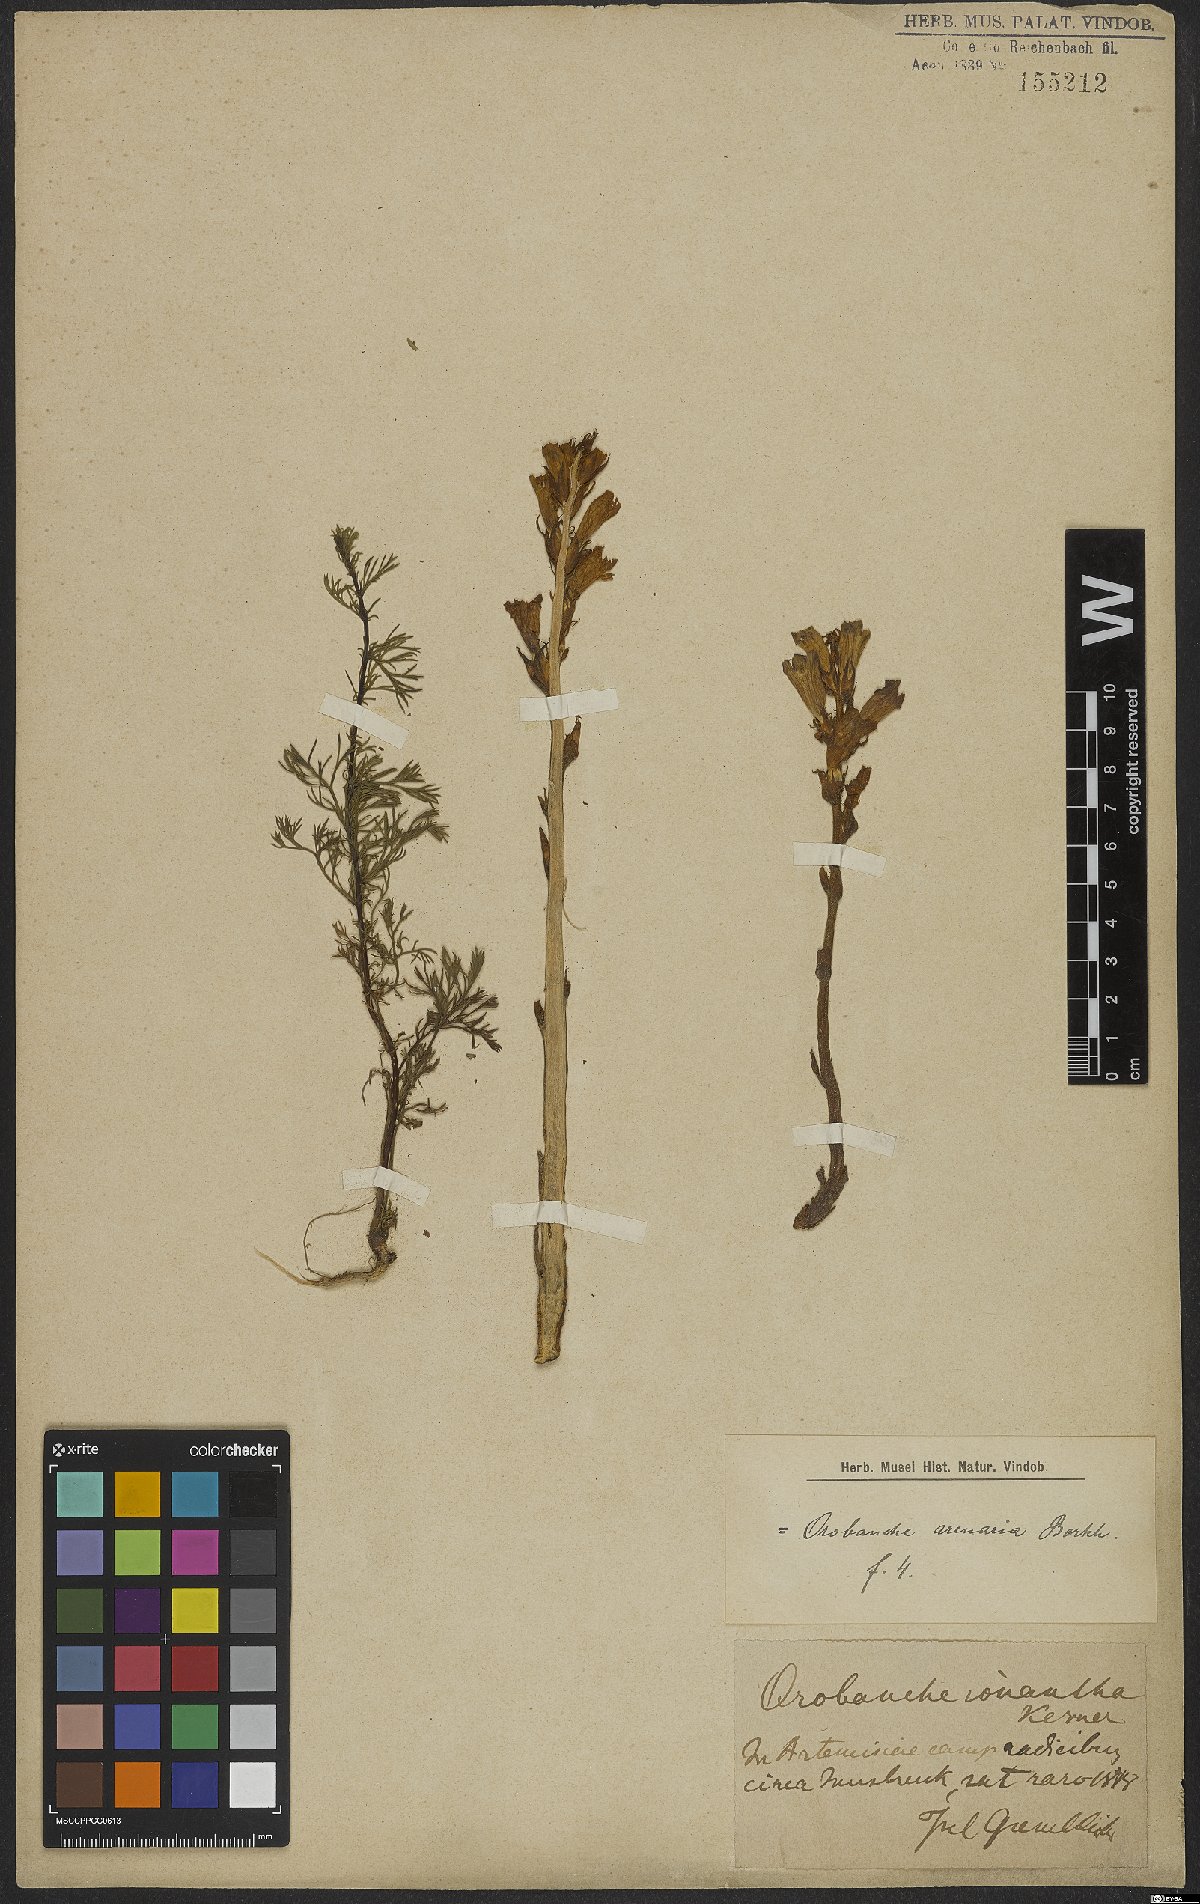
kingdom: Plantae
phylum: Tracheophyta
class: Magnoliopsida
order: Lamiales
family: Orobanchaceae
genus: Phelipanche
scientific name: Phelipanche arenaria
